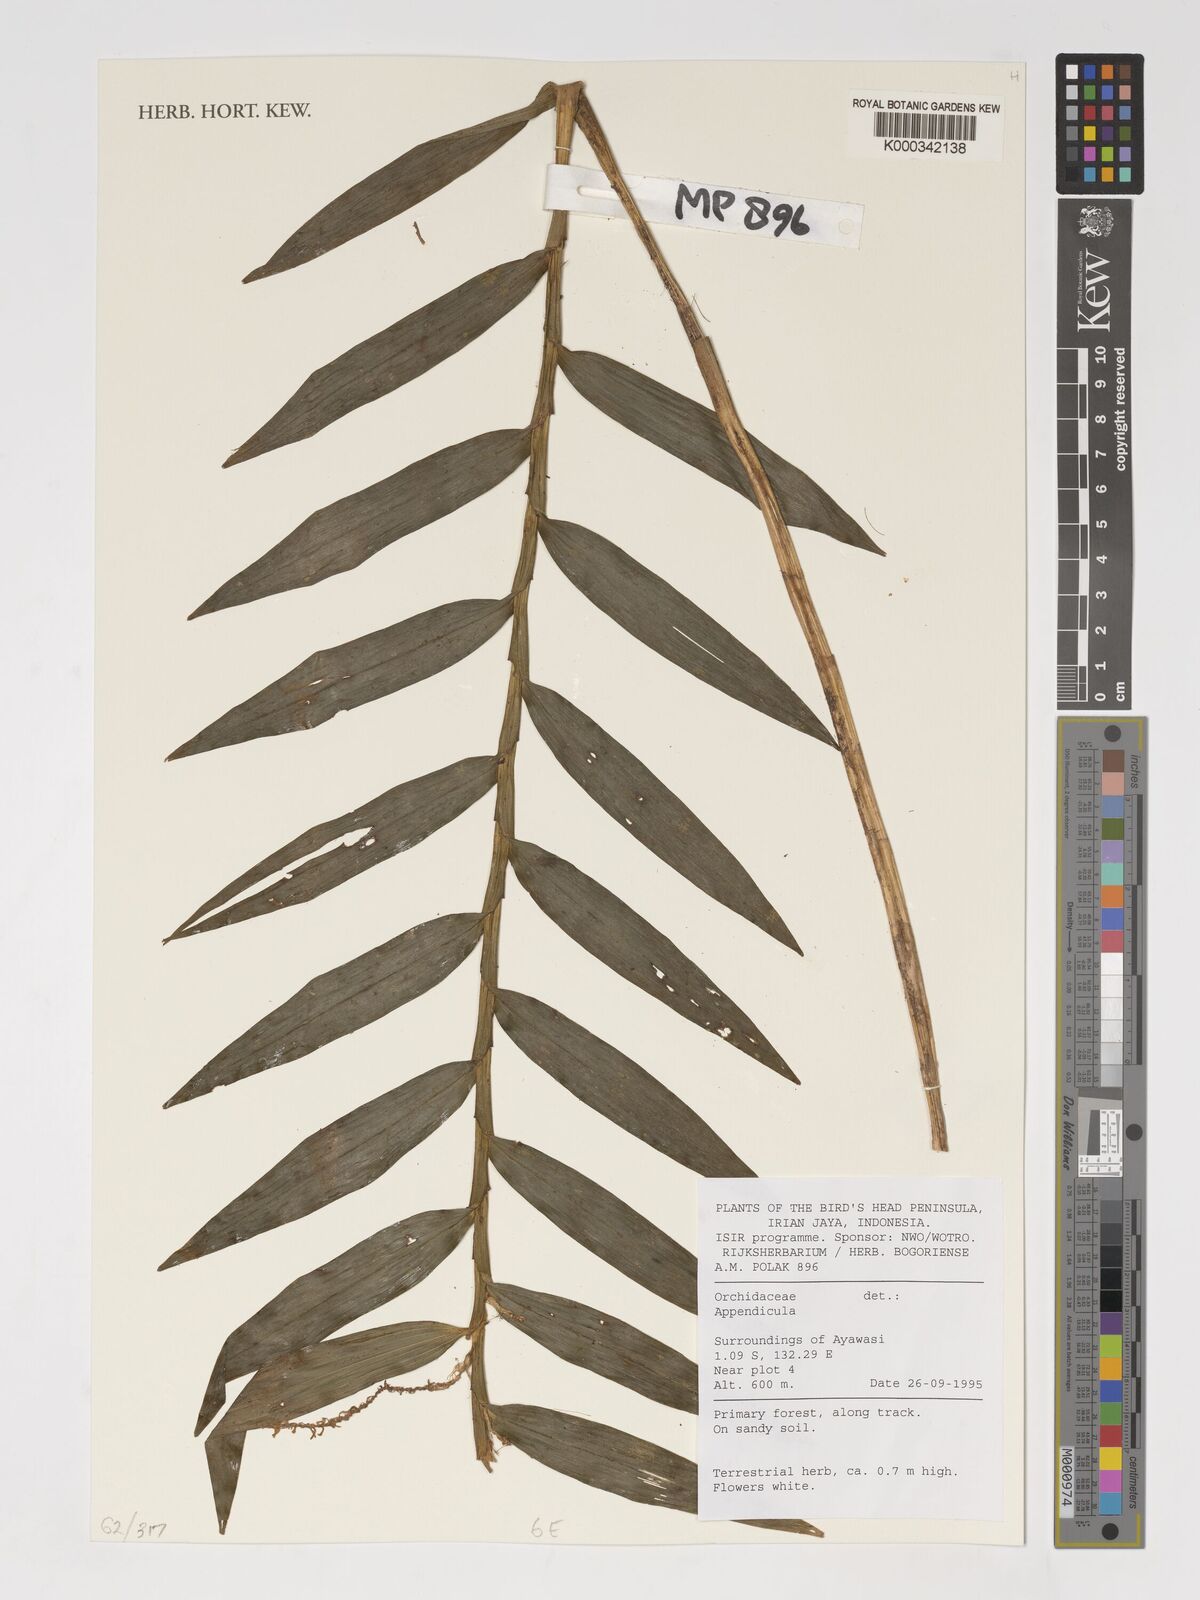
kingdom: Plantae
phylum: Tracheophyta
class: Liliopsida
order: Asparagales
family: Orchidaceae
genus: Appendicula
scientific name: Appendicula
